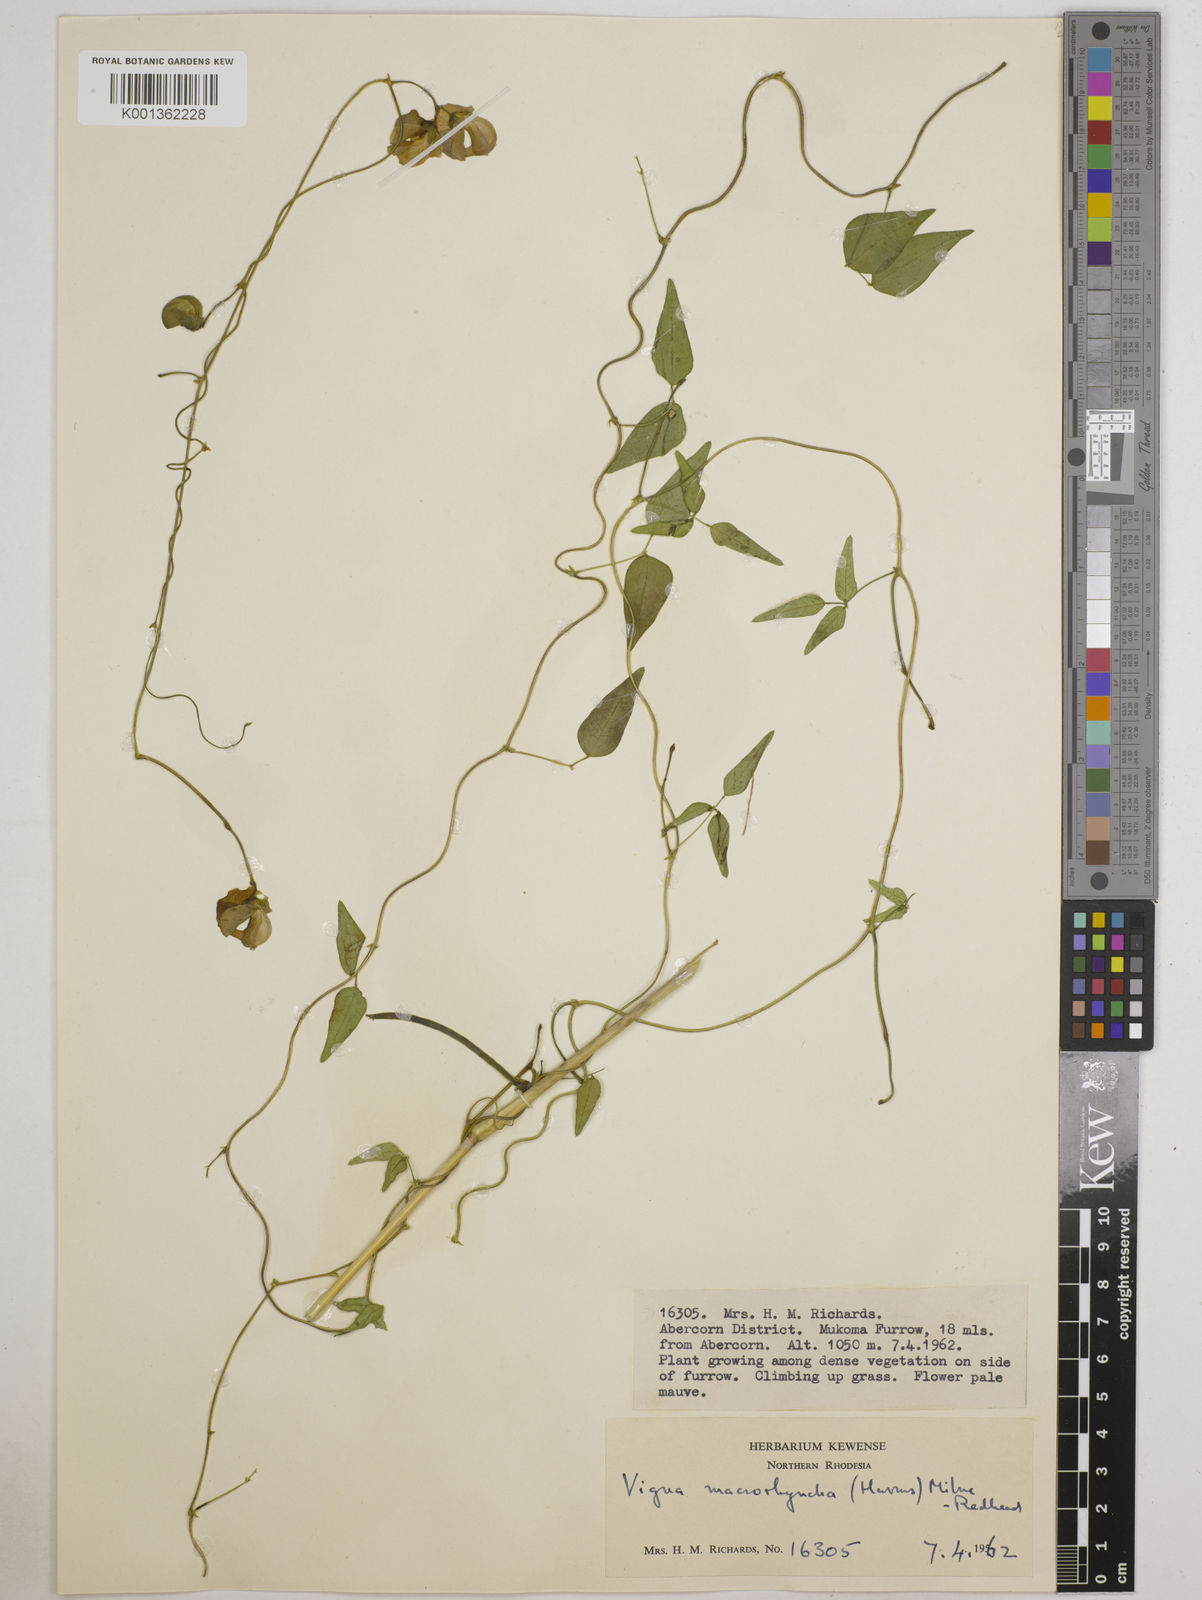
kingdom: Plantae
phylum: Tracheophyta
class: Magnoliopsida
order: Fabales
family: Fabaceae
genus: Wajira
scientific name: Wajira grahamiana
